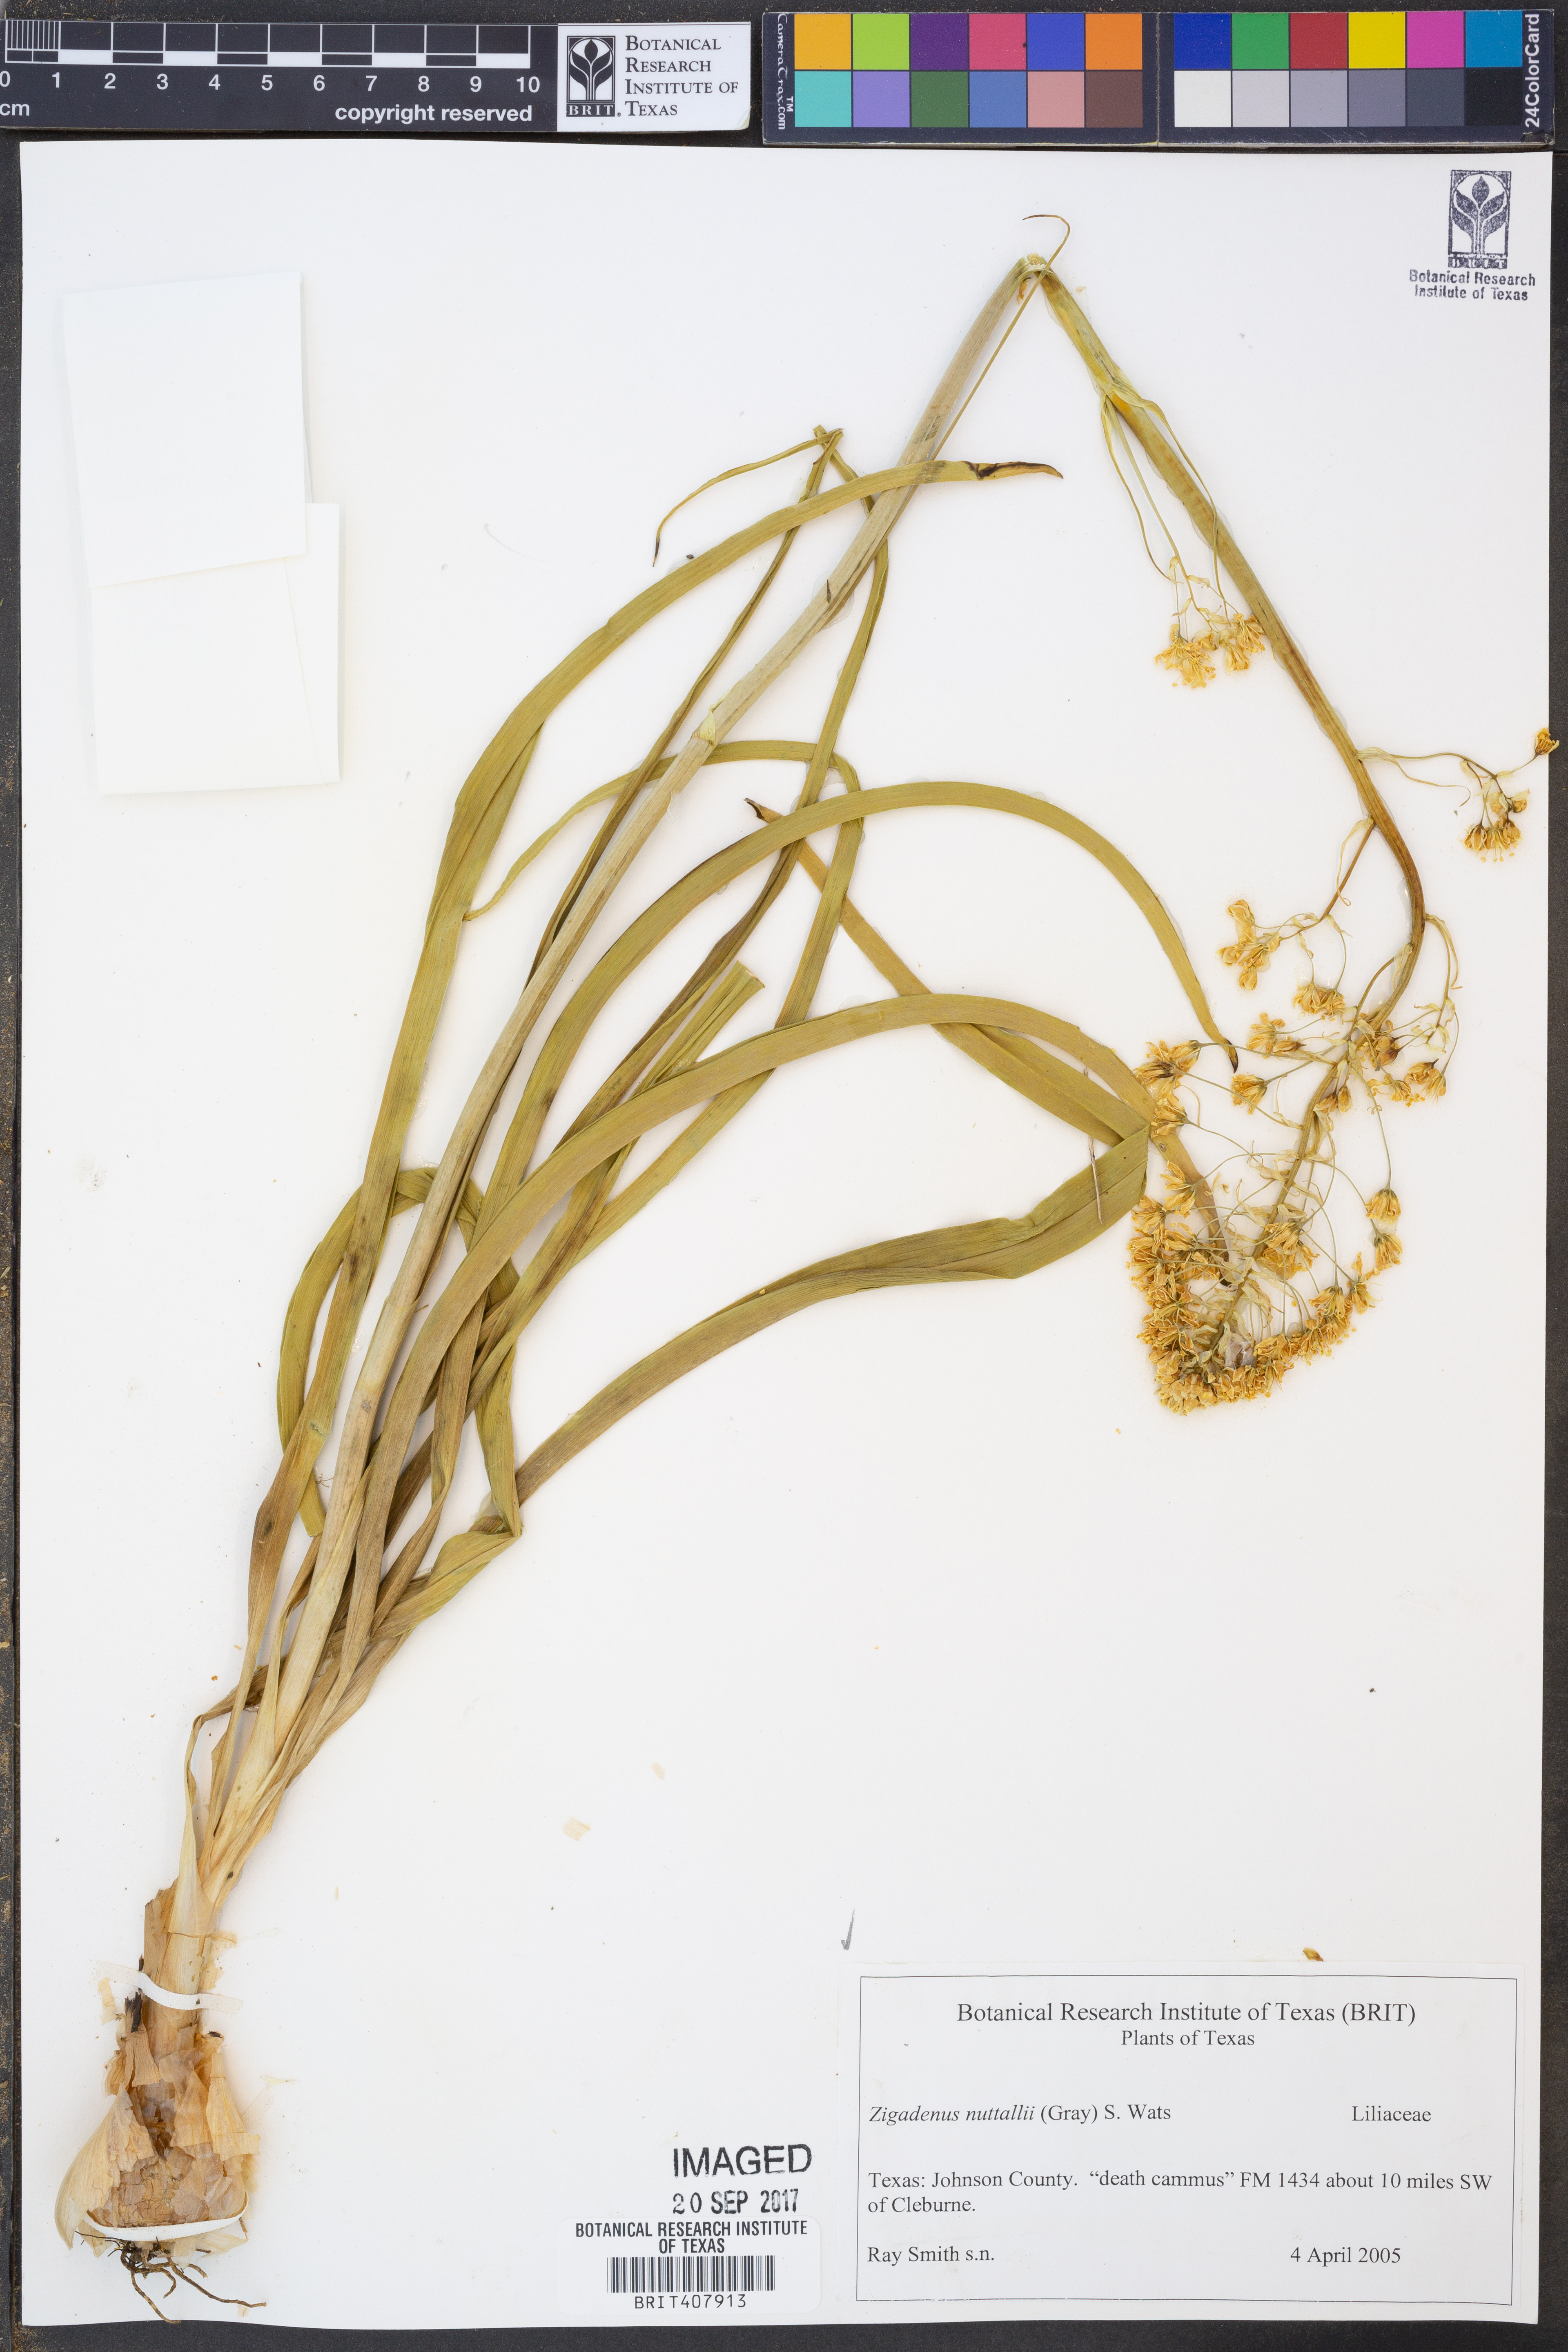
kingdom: Plantae
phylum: Tracheophyta
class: Liliopsida
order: Liliales
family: Melanthiaceae
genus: Toxicoscordion
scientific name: Toxicoscordion nuttallii
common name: Poison sego
